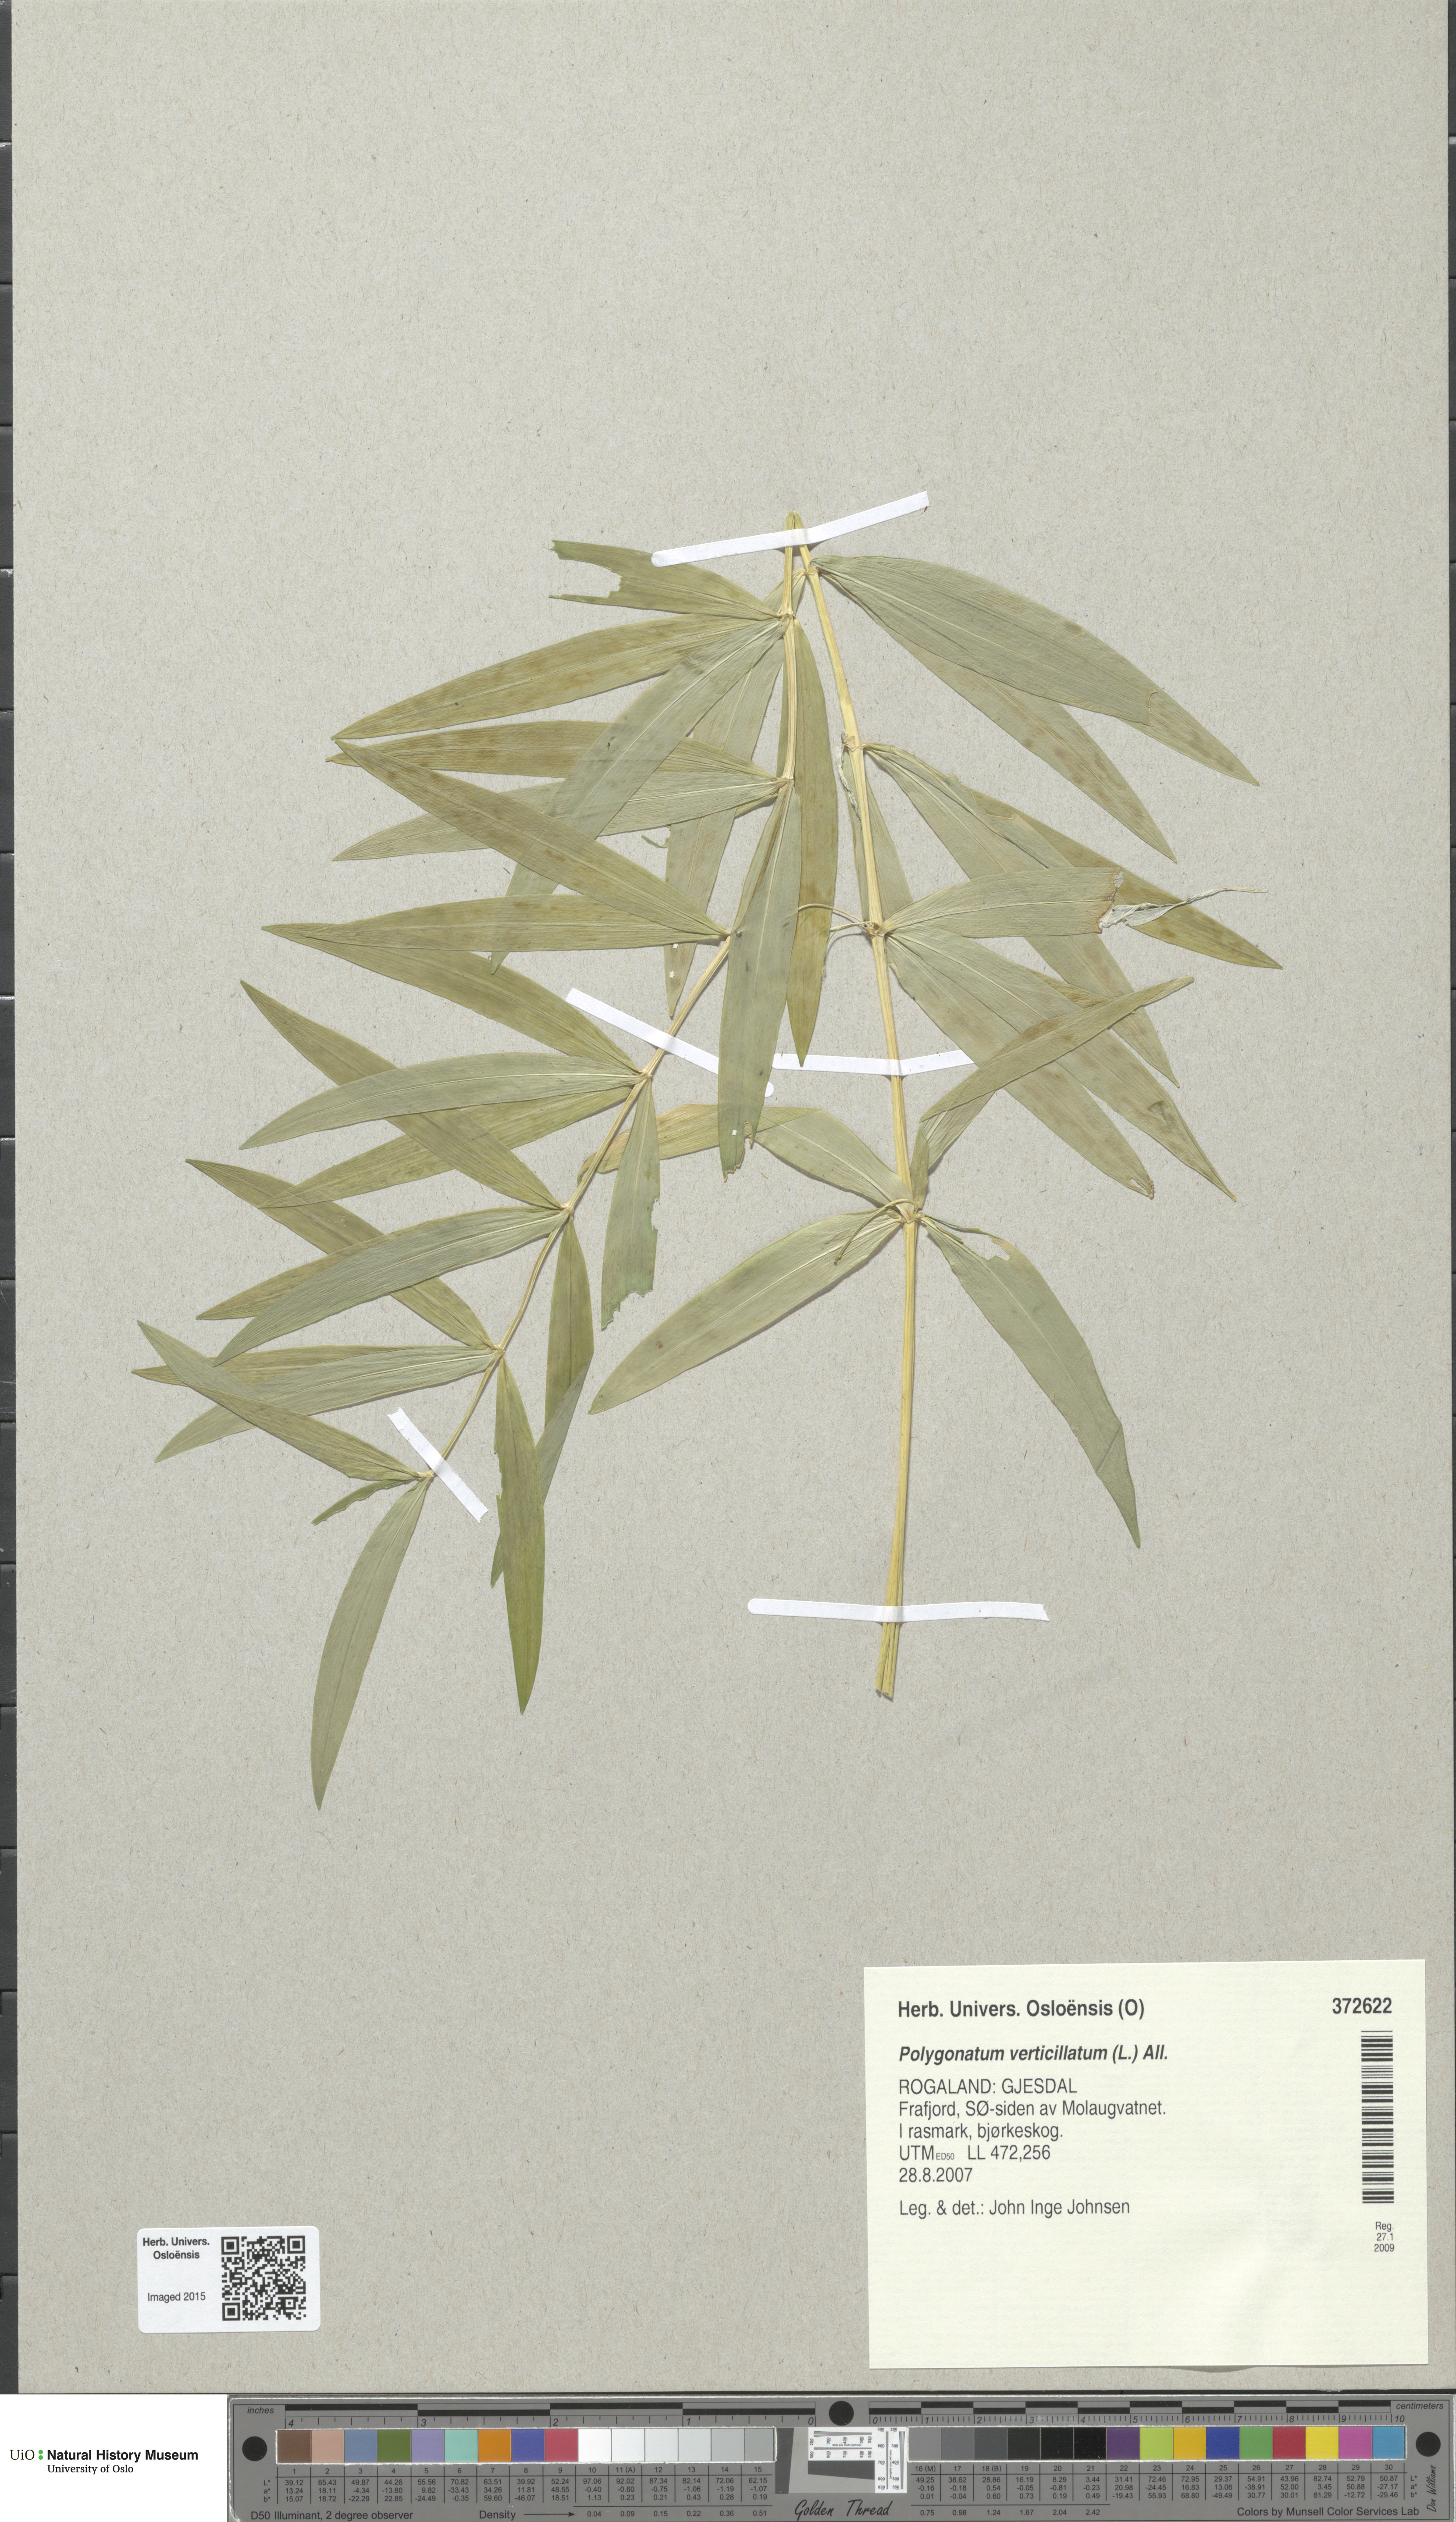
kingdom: Plantae
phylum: Tracheophyta
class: Liliopsida
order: Asparagales
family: Asparagaceae
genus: Polygonatum
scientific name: Polygonatum verticillatum
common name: Whorled solomon's-seal
